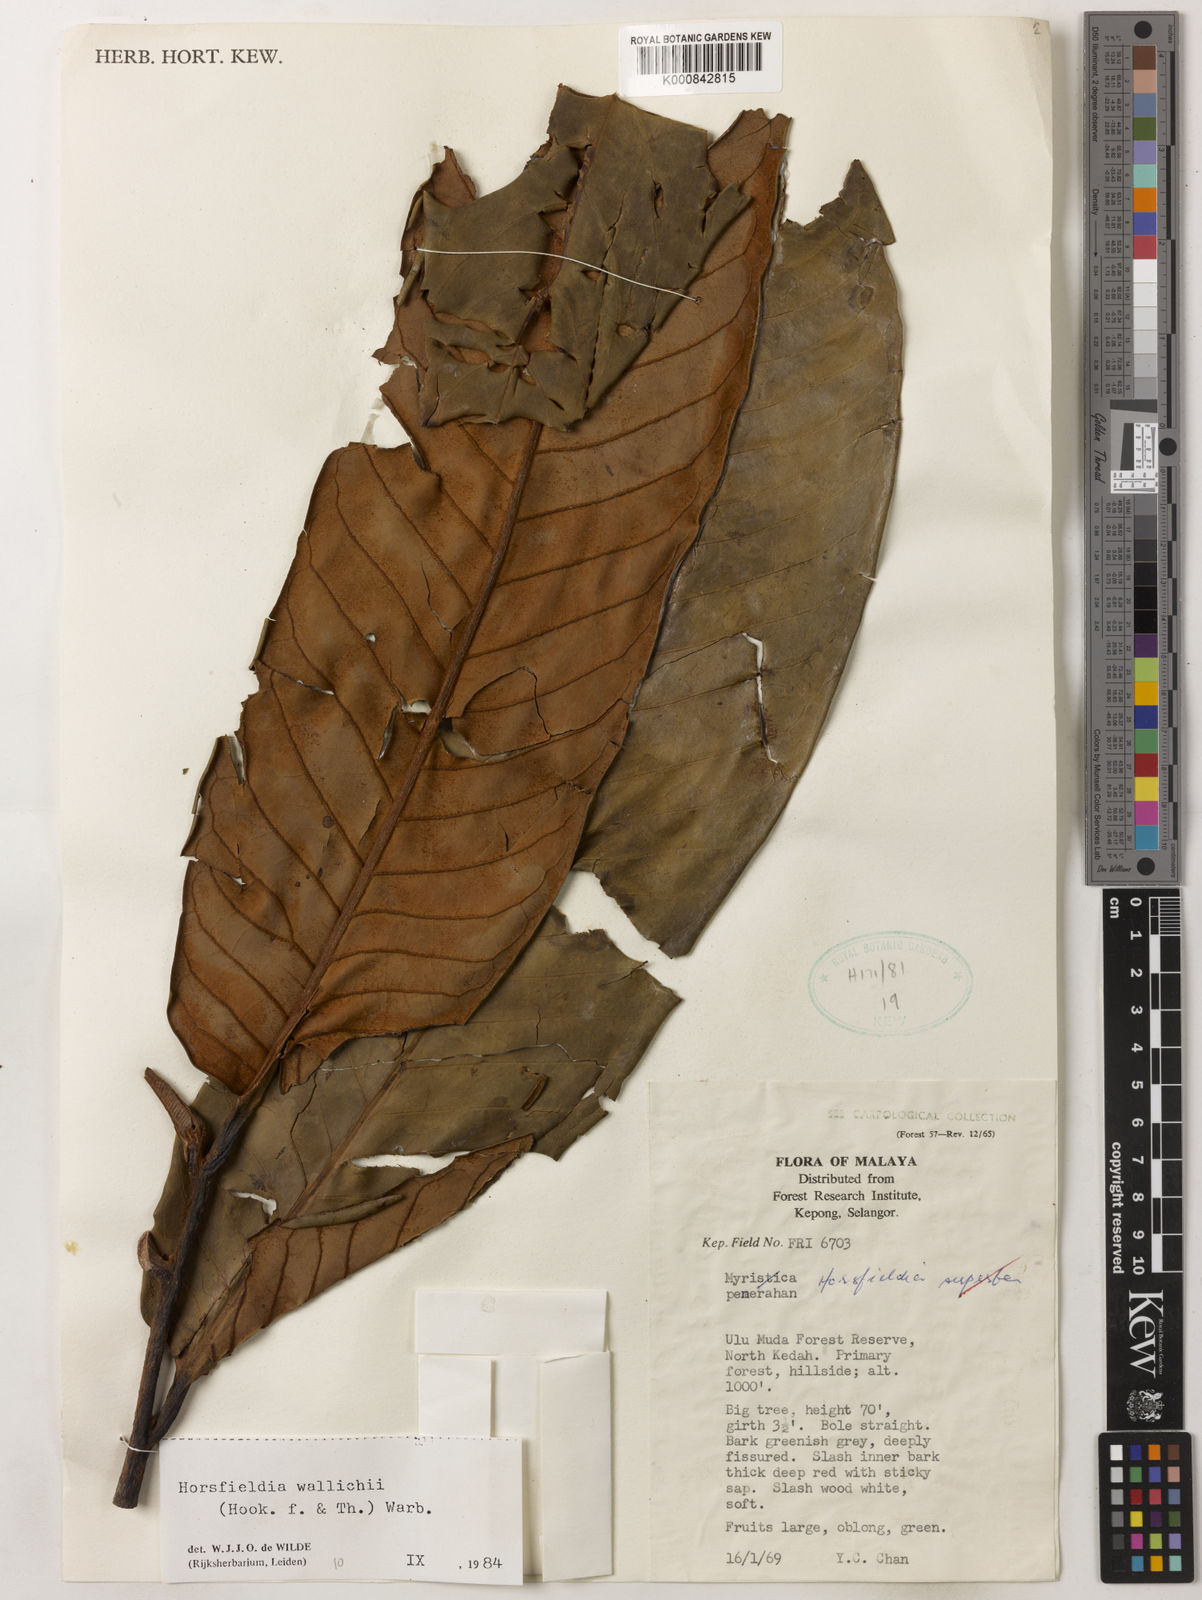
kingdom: Plantae
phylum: Tracheophyta
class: Magnoliopsida
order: Magnoliales
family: Myristicaceae
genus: Horsfieldia
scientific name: Horsfieldia wallichii
